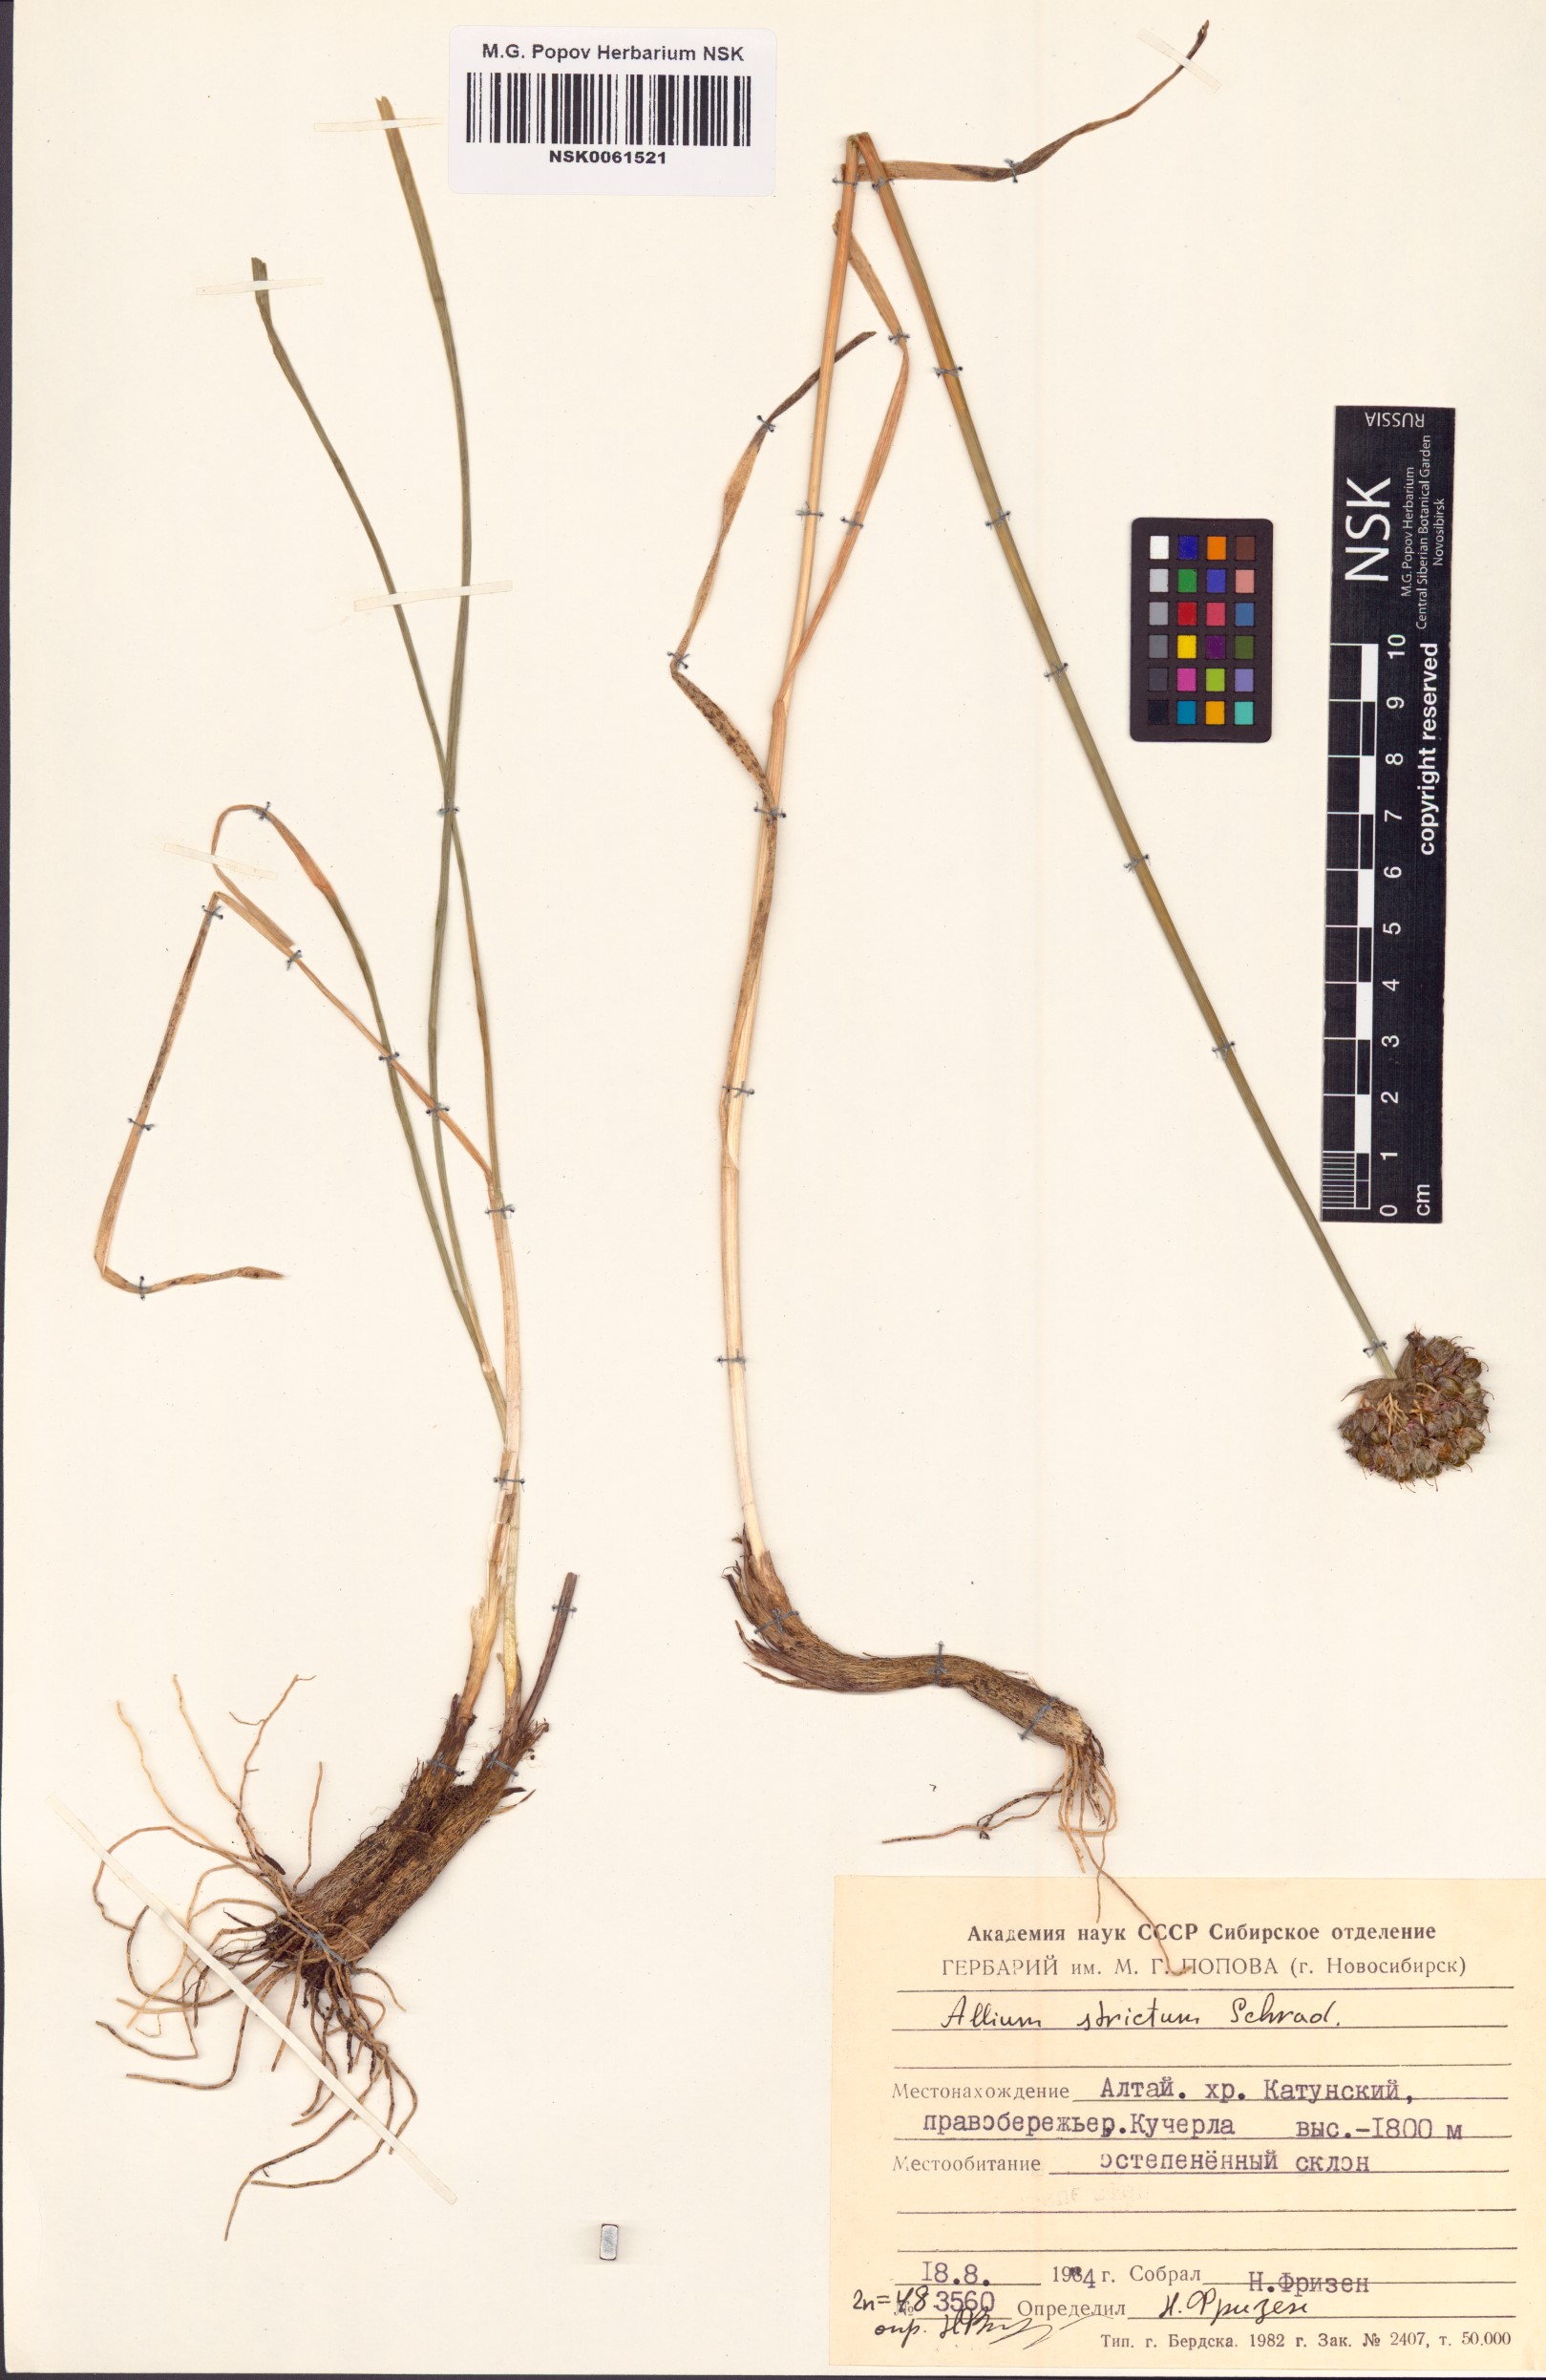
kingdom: Plantae
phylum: Tracheophyta
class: Liliopsida
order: Asparagales
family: Amaryllidaceae
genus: Allium
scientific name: Allium strictum
